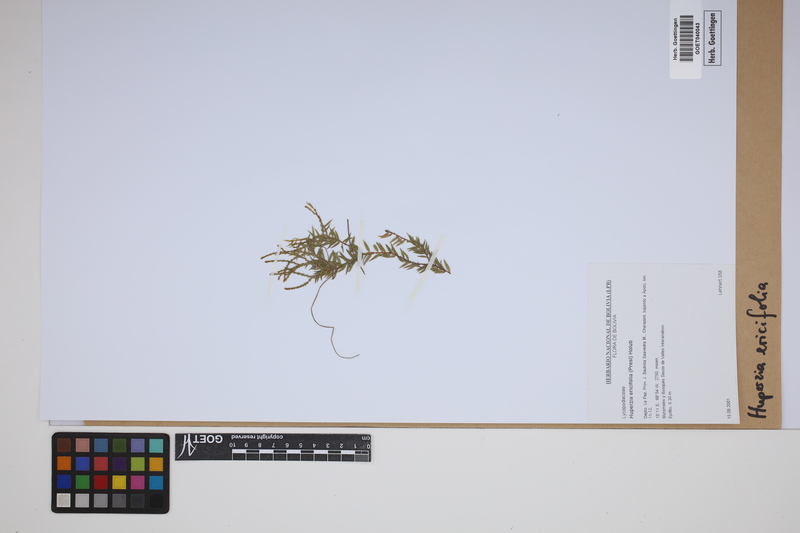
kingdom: Plantae
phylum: Tracheophyta
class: Lycopodiopsida
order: Lycopodiales
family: Lycopodiaceae
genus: Phlegmariurus
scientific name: Phlegmariurus ericifolius
